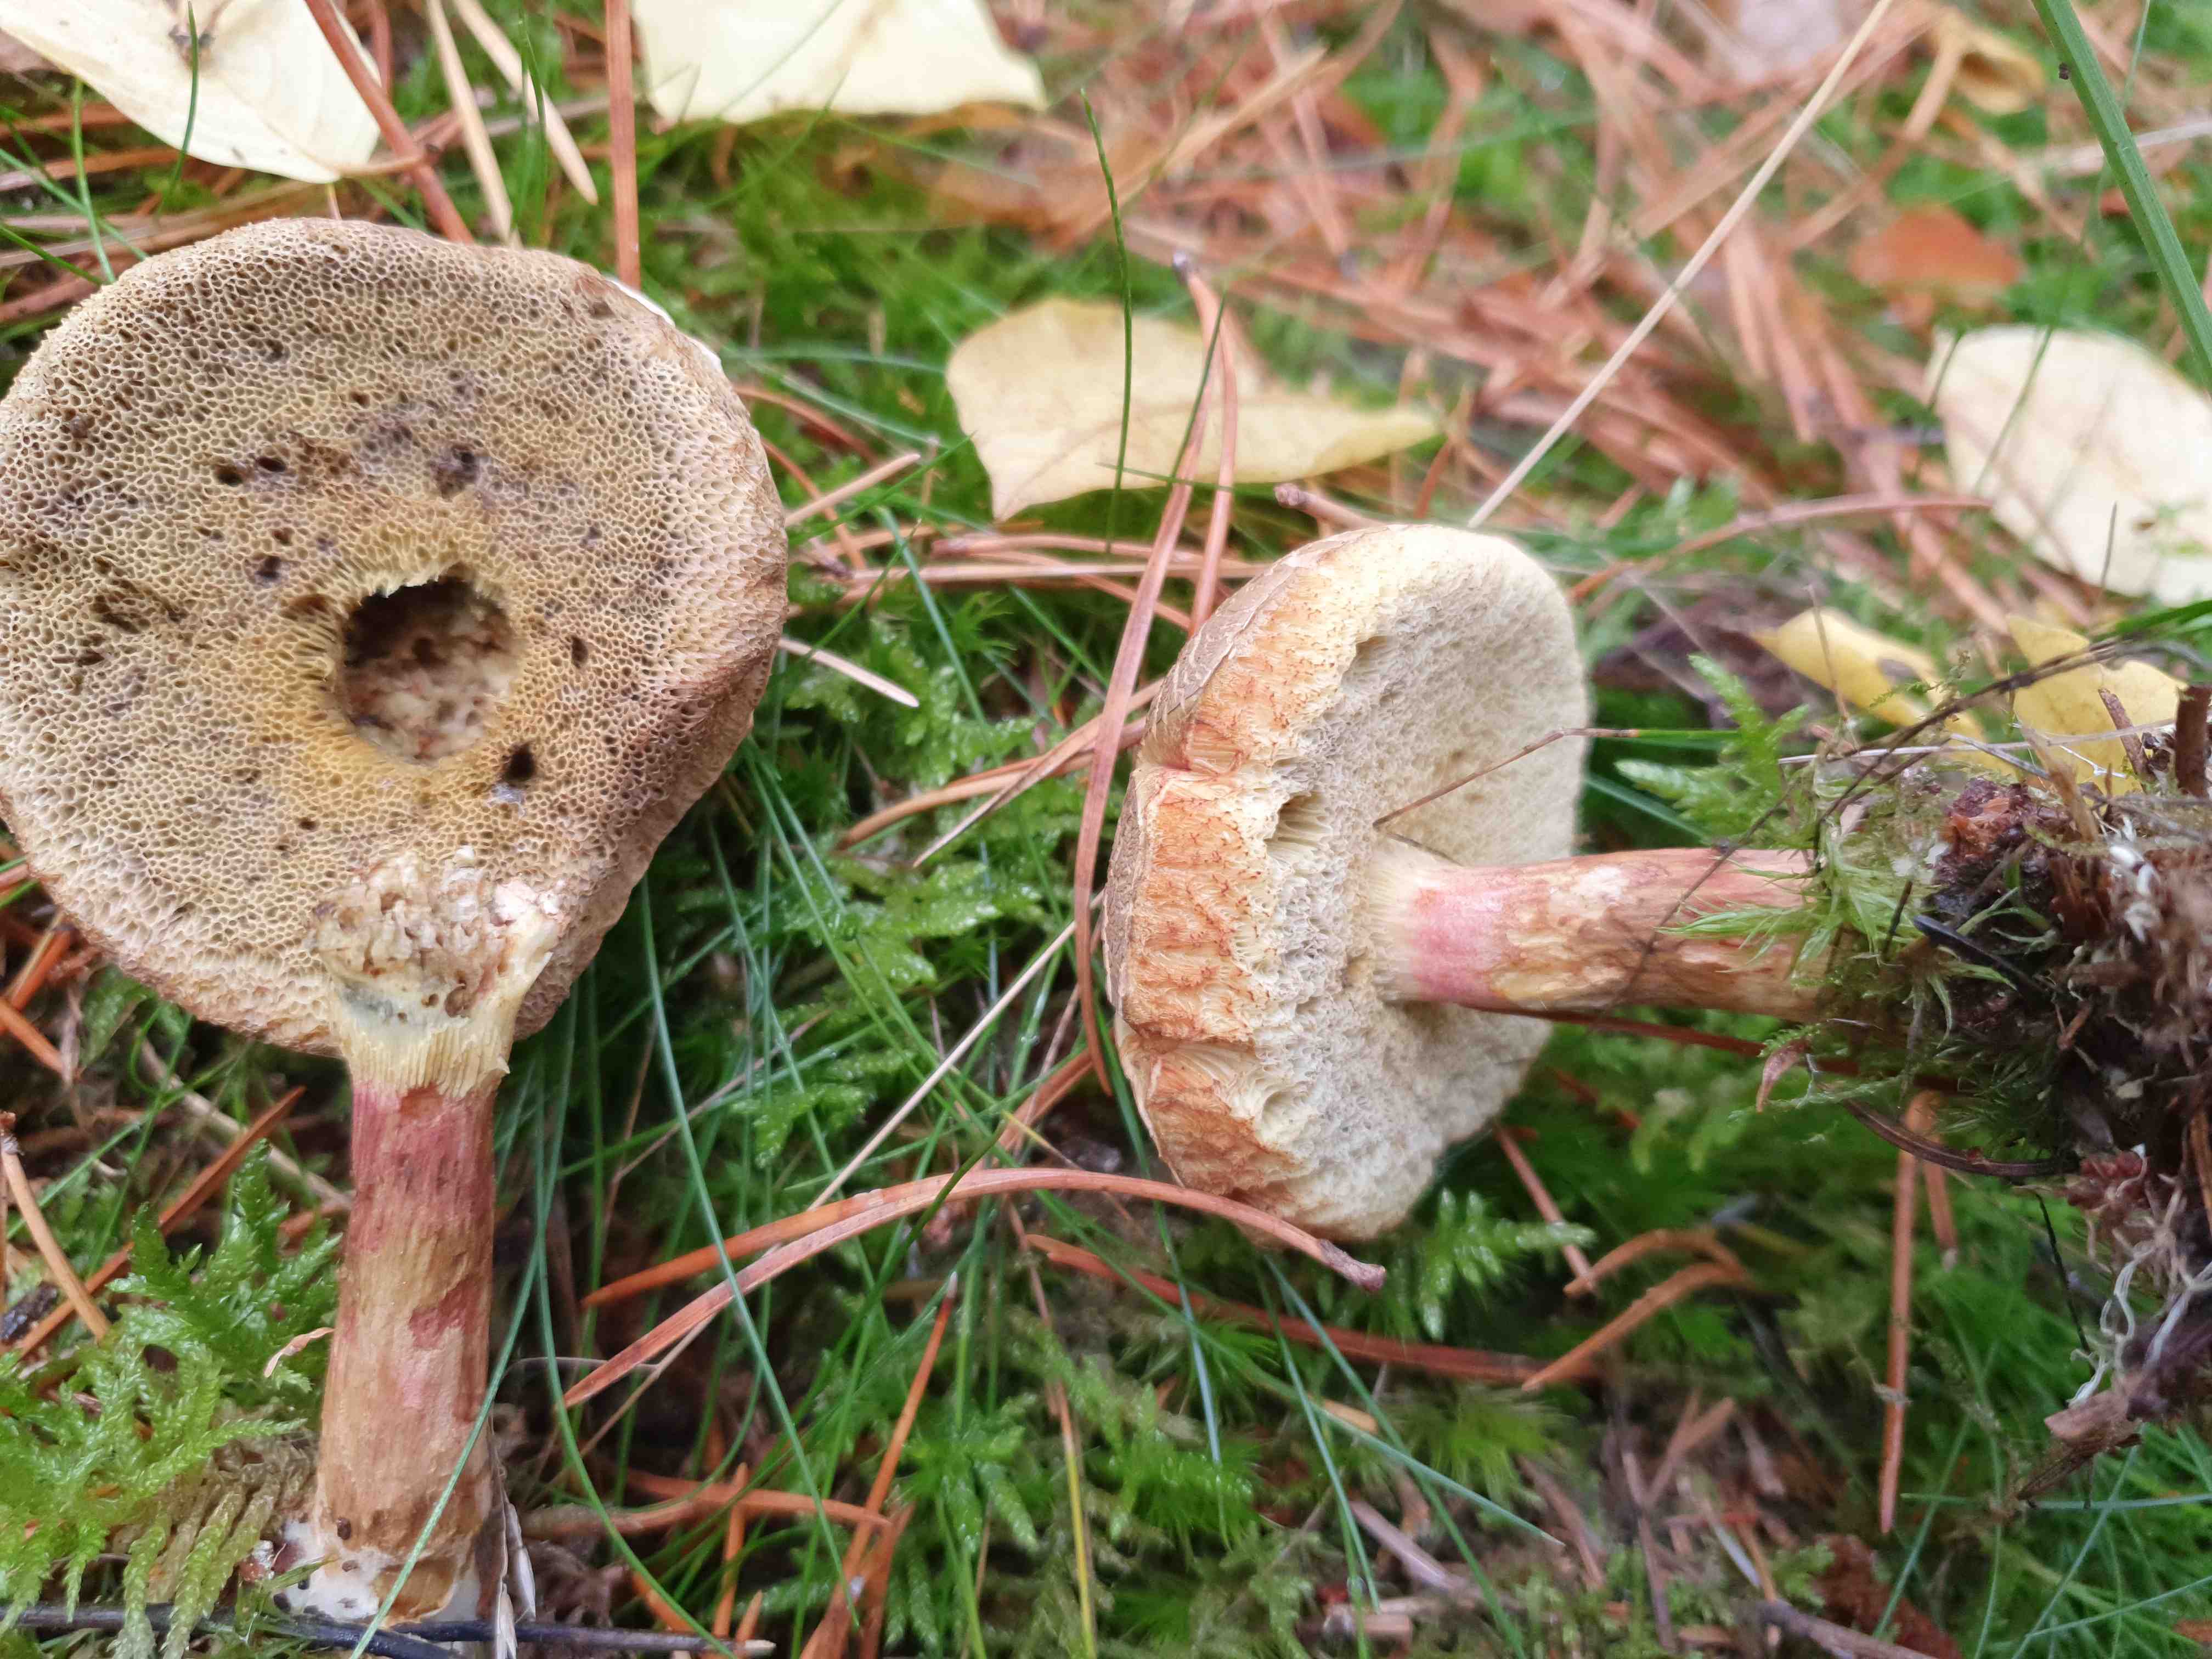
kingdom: Fungi
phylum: Basidiomycota
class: Agaricomycetes
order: Boletales
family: Boletaceae
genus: Xerocomellus
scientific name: Xerocomellus
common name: dværgrørhat
